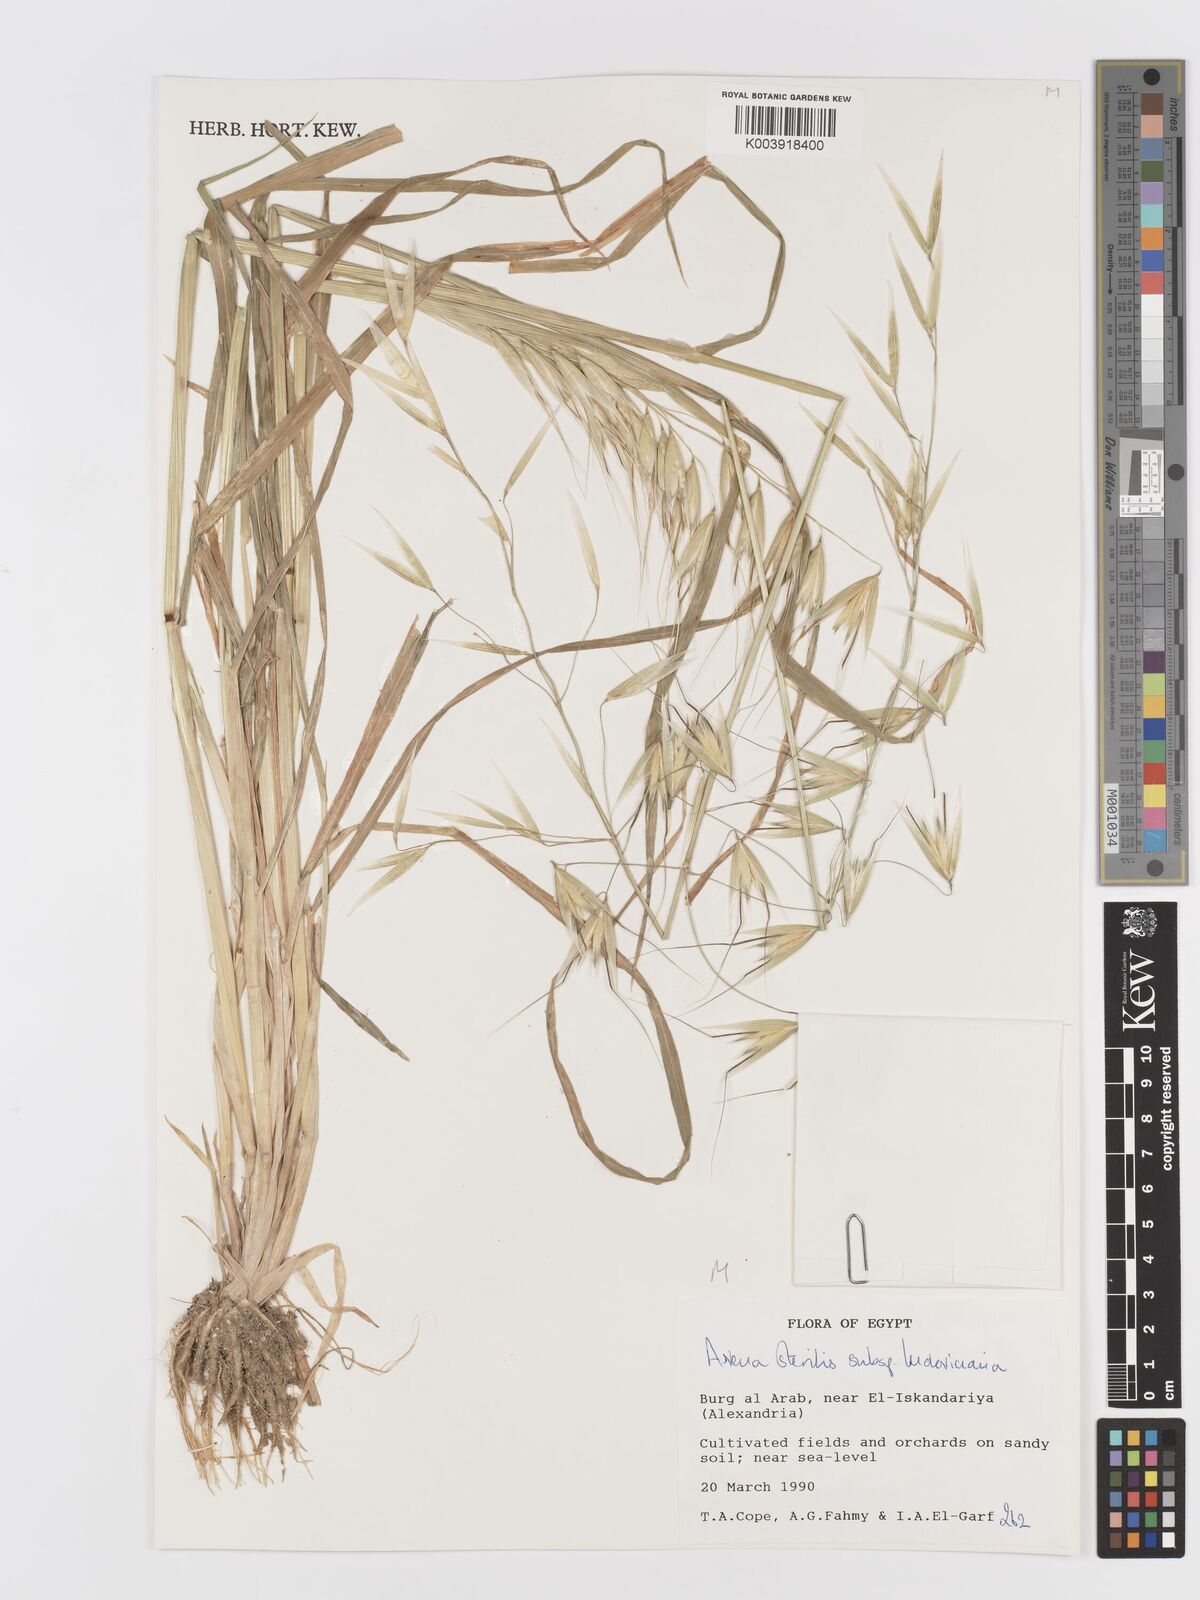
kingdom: Plantae
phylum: Tracheophyta
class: Liliopsida
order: Poales
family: Poaceae
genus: Avena
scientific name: Avena sterilis
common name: Animated oat
